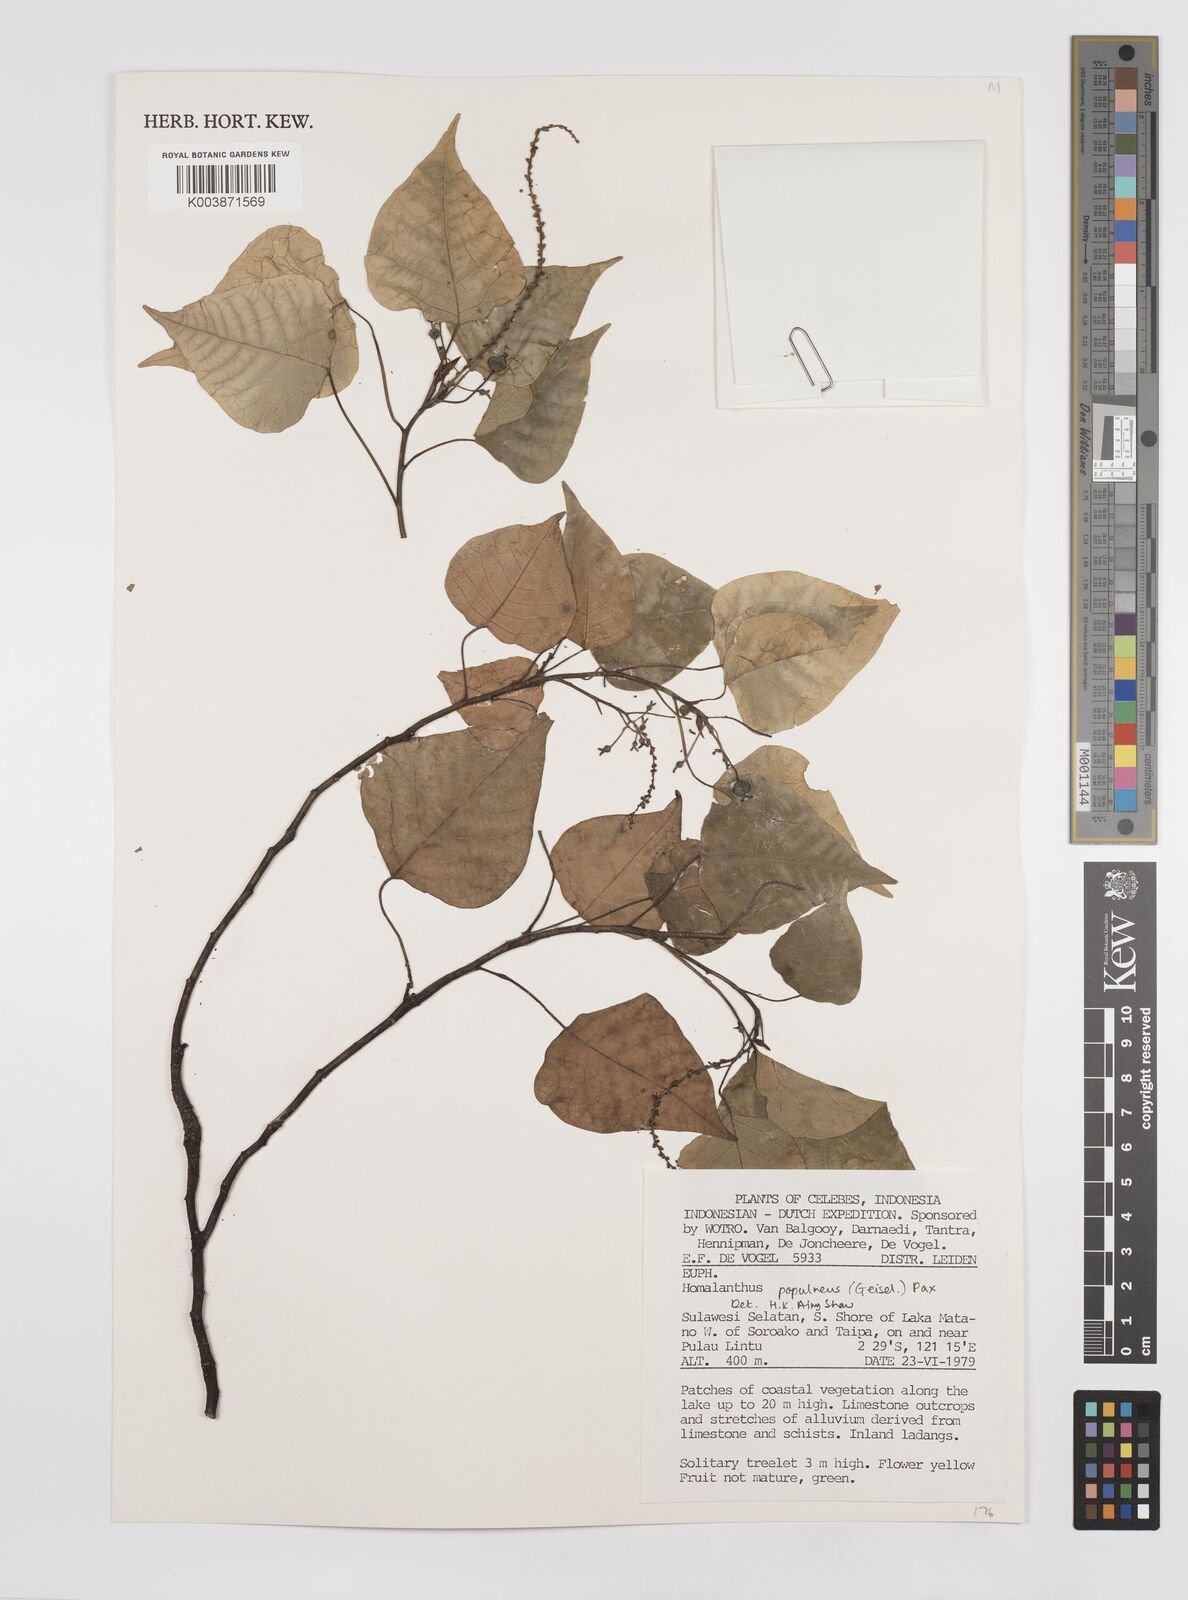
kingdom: Plantae
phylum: Tracheophyta
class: Magnoliopsida
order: Malpighiales
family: Euphorbiaceae
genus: Homalanthus
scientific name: Homalanthus populneus
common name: Spurge
